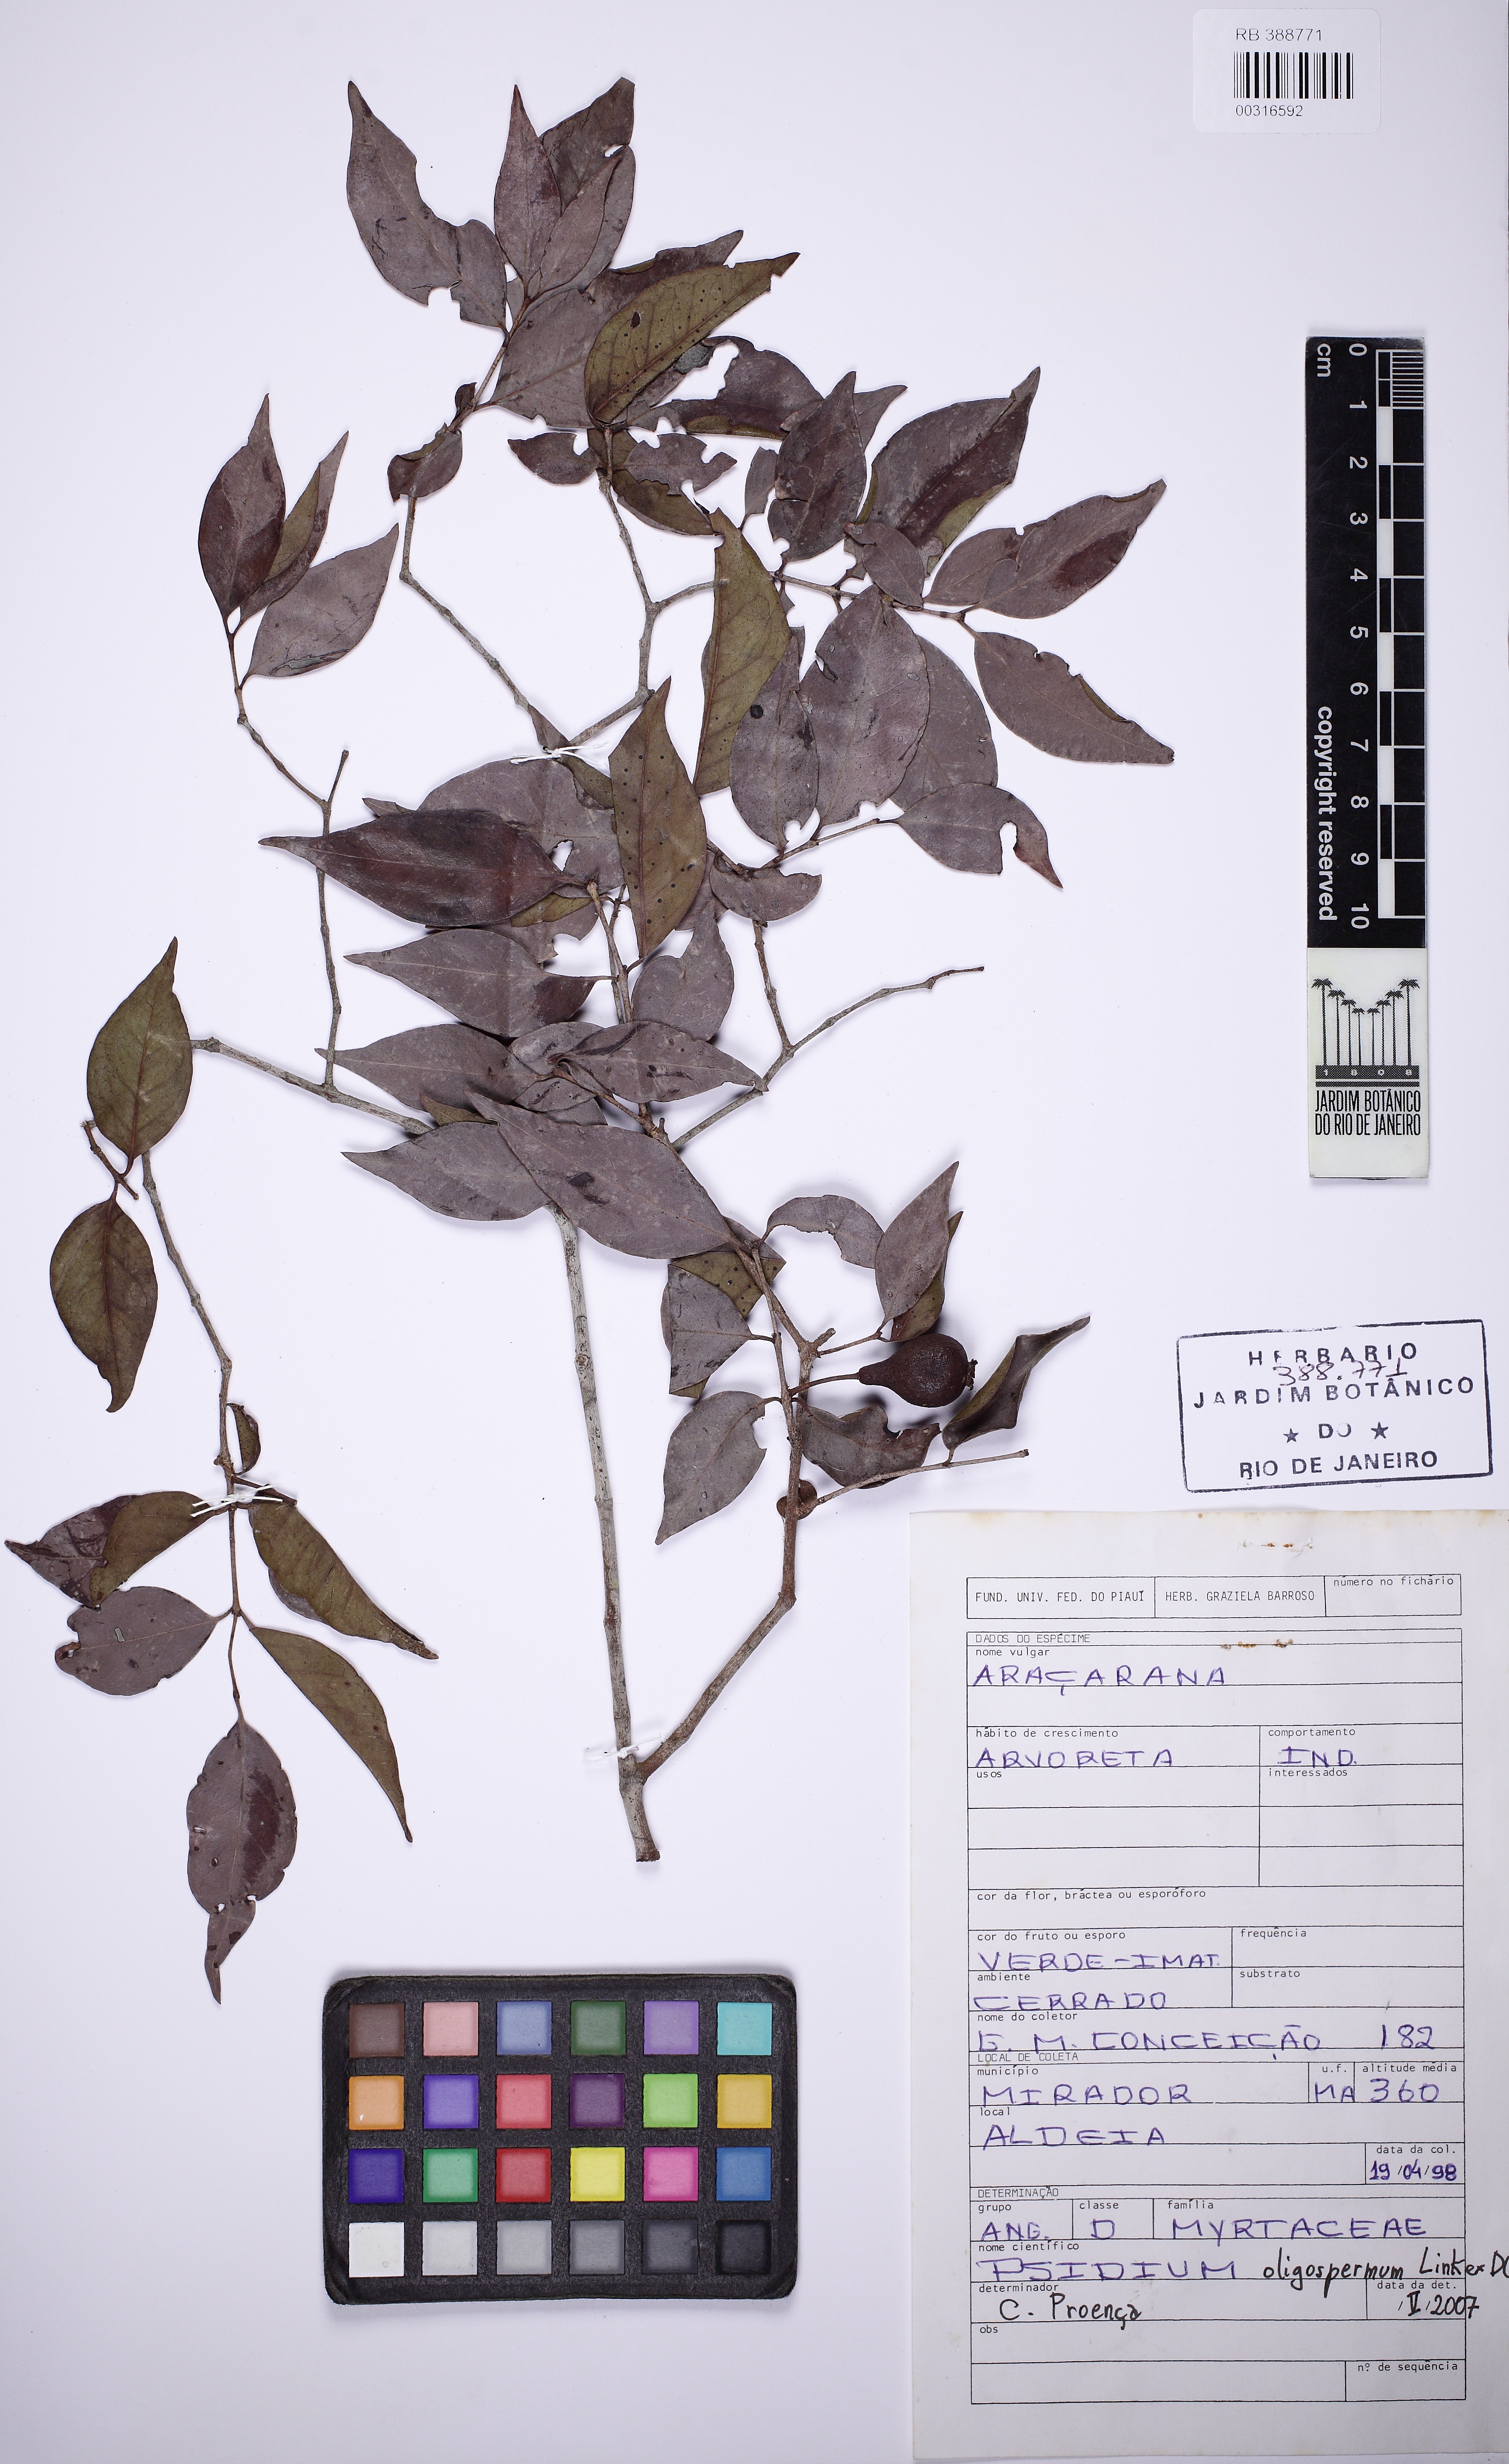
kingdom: Plantae
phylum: Tracheophyta
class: Magnoliopsida
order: Myrtales
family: Myrtaceae
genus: Psidium
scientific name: Psidium oligospermum
